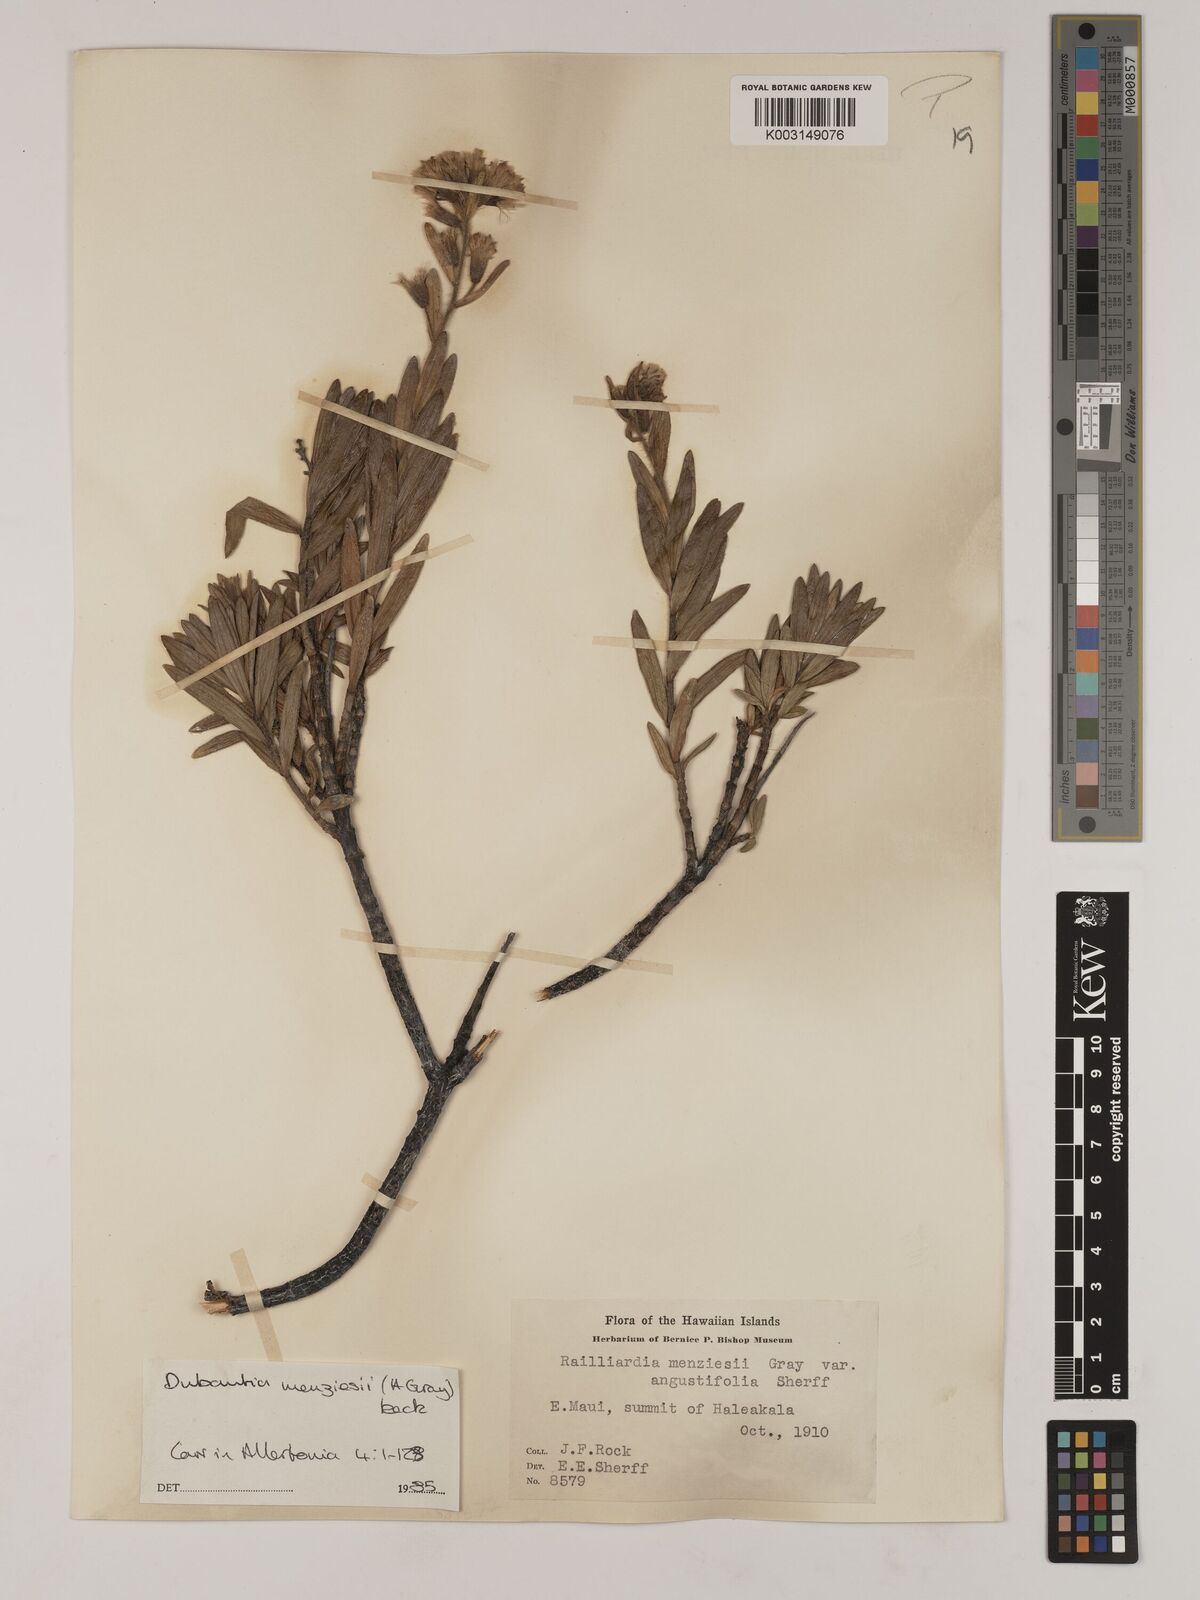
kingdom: Plantae
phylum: Tracheophyta
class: Magnoliopsida
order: Asterales
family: Asteraceae
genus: Dubautia
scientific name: Dubautia menziesii
